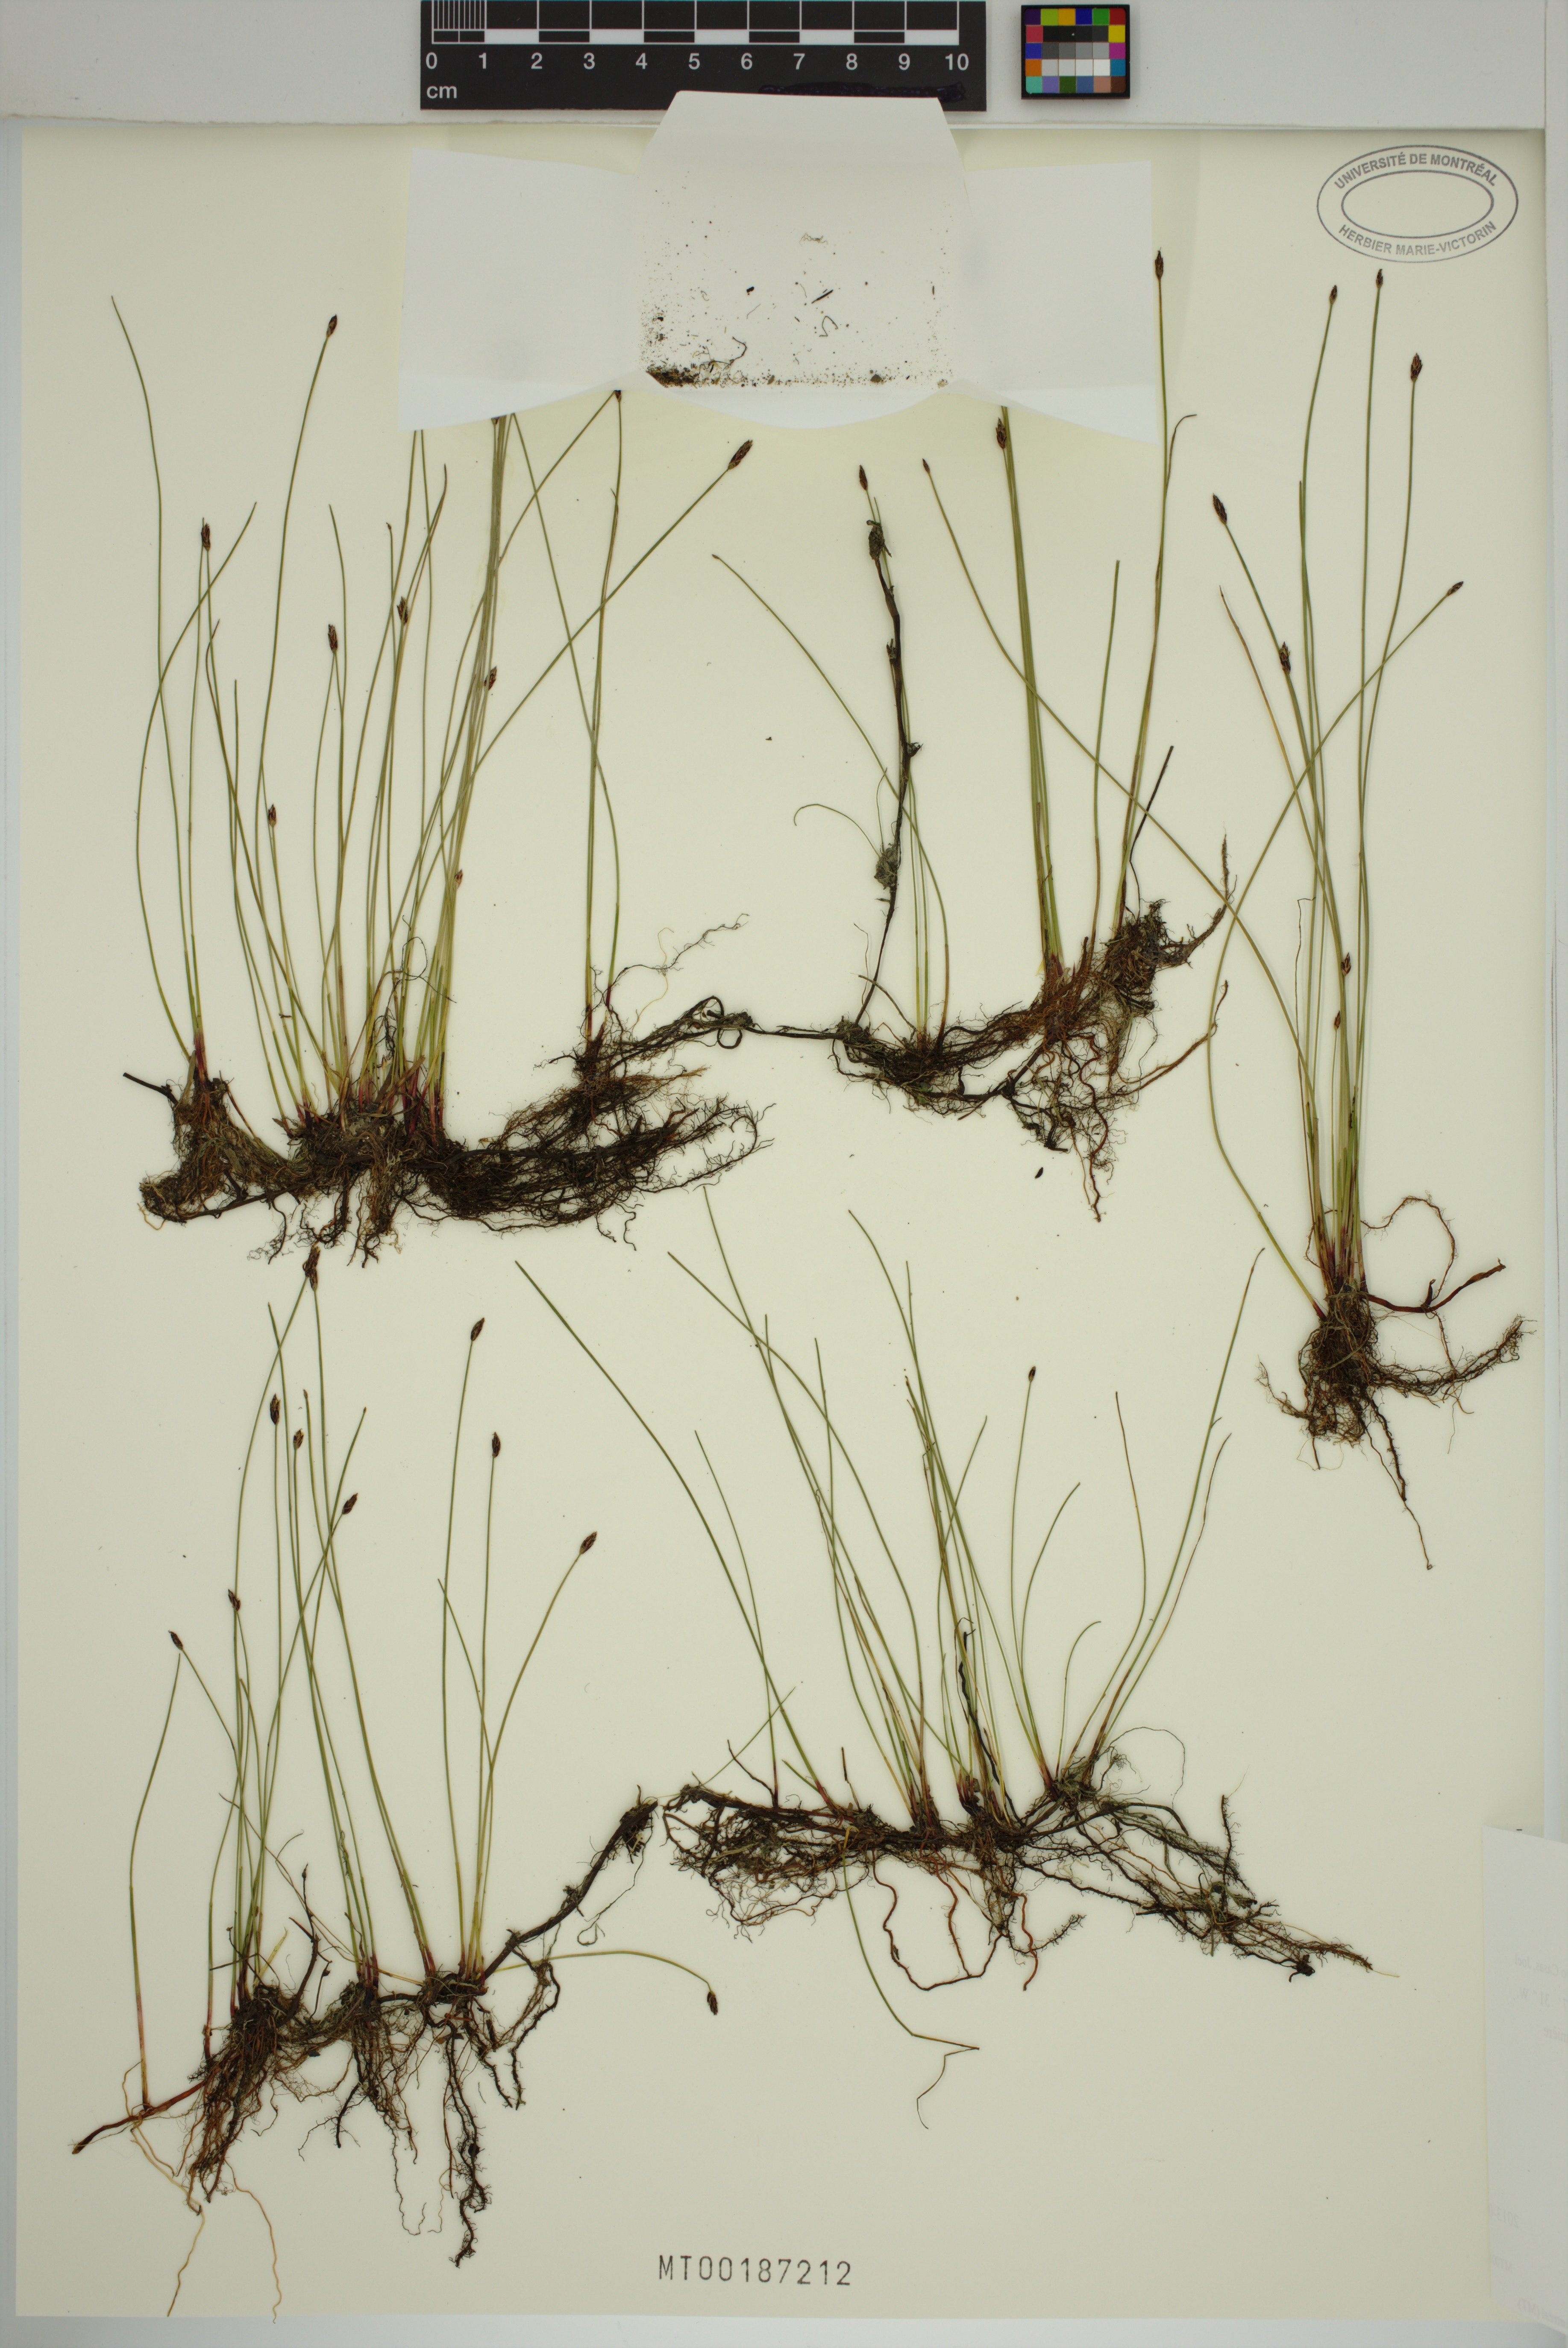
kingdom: Plantae
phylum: Tracheophyta
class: Liliopsida
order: Poales
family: Cyperaceae
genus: Eleocharis
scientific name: Eleocharis uniglumis
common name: Slender spike-rush
